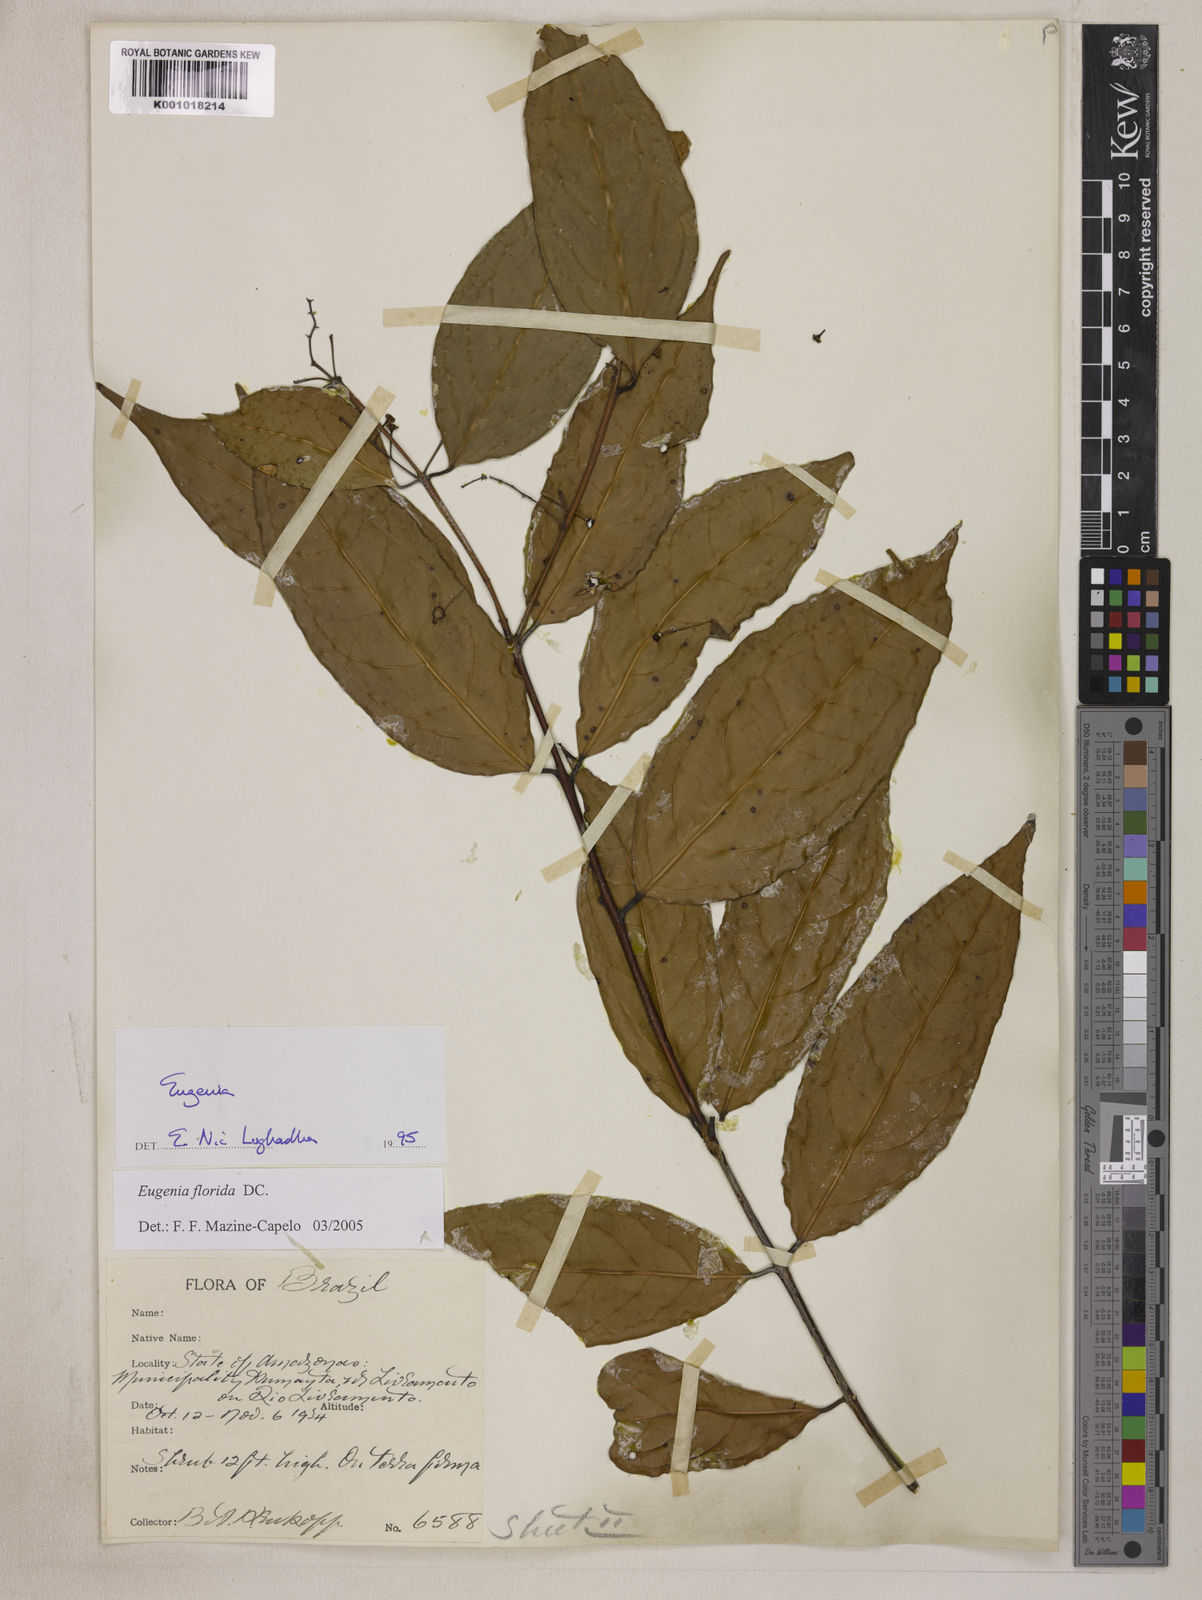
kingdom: Plantae
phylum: Tracheophyta
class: Magnoliopsida
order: Myrtales
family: Myrtaceae
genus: Eugenia
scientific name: Eugenia florida
